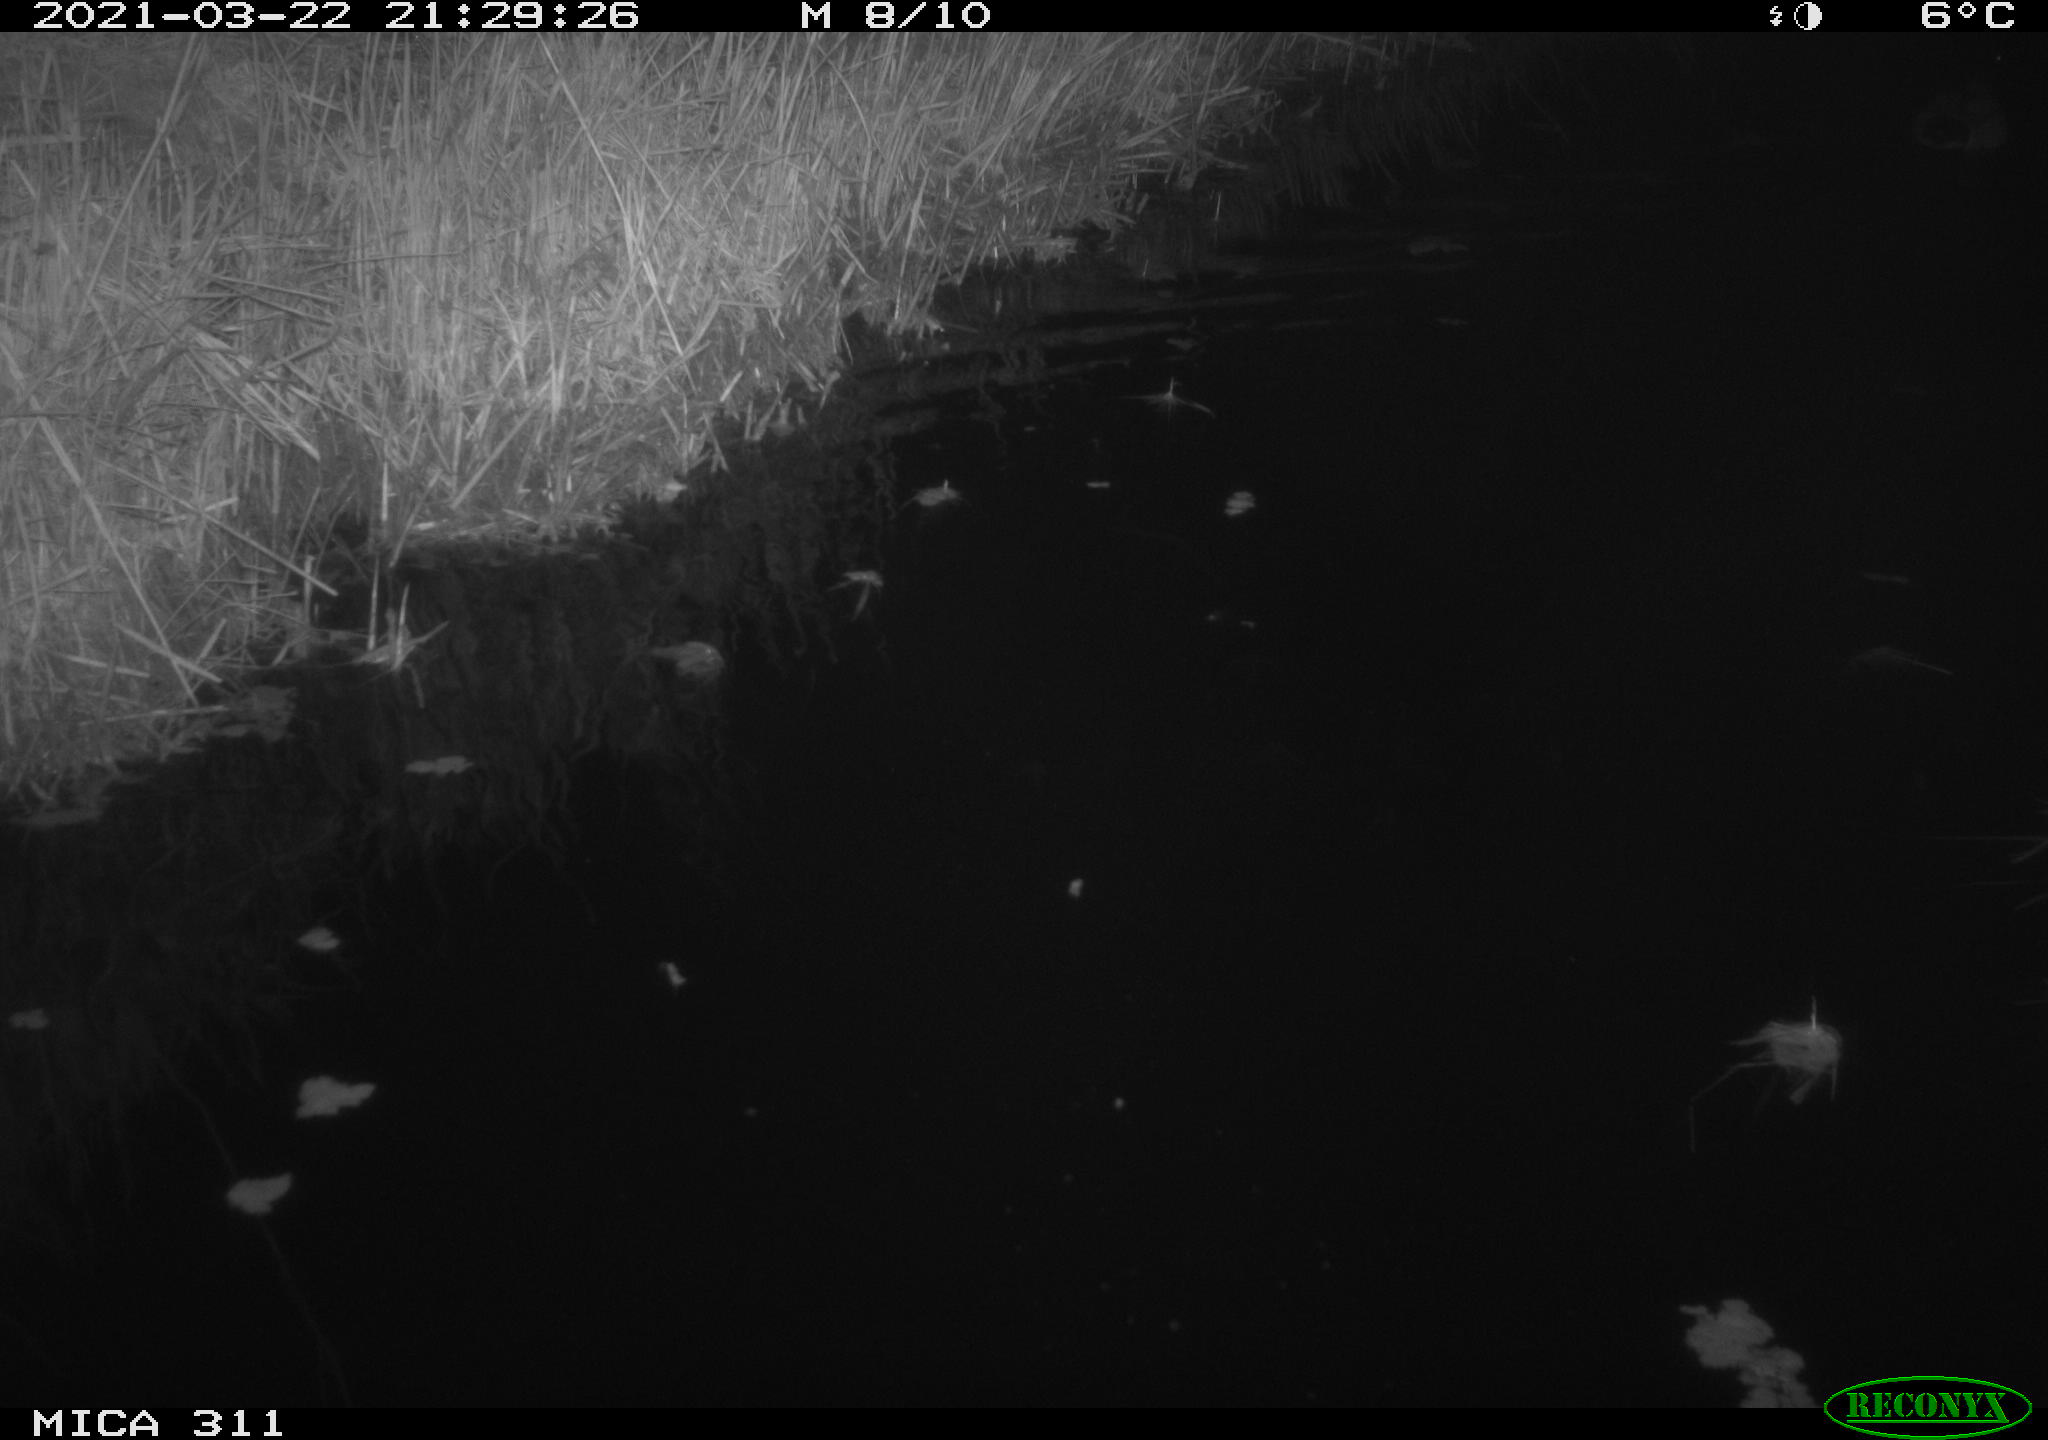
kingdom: Animalia
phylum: Chordata
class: Aves
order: Anseriformes
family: Anatidae
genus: Anas
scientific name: Anas platyrhynchos
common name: Mallard
